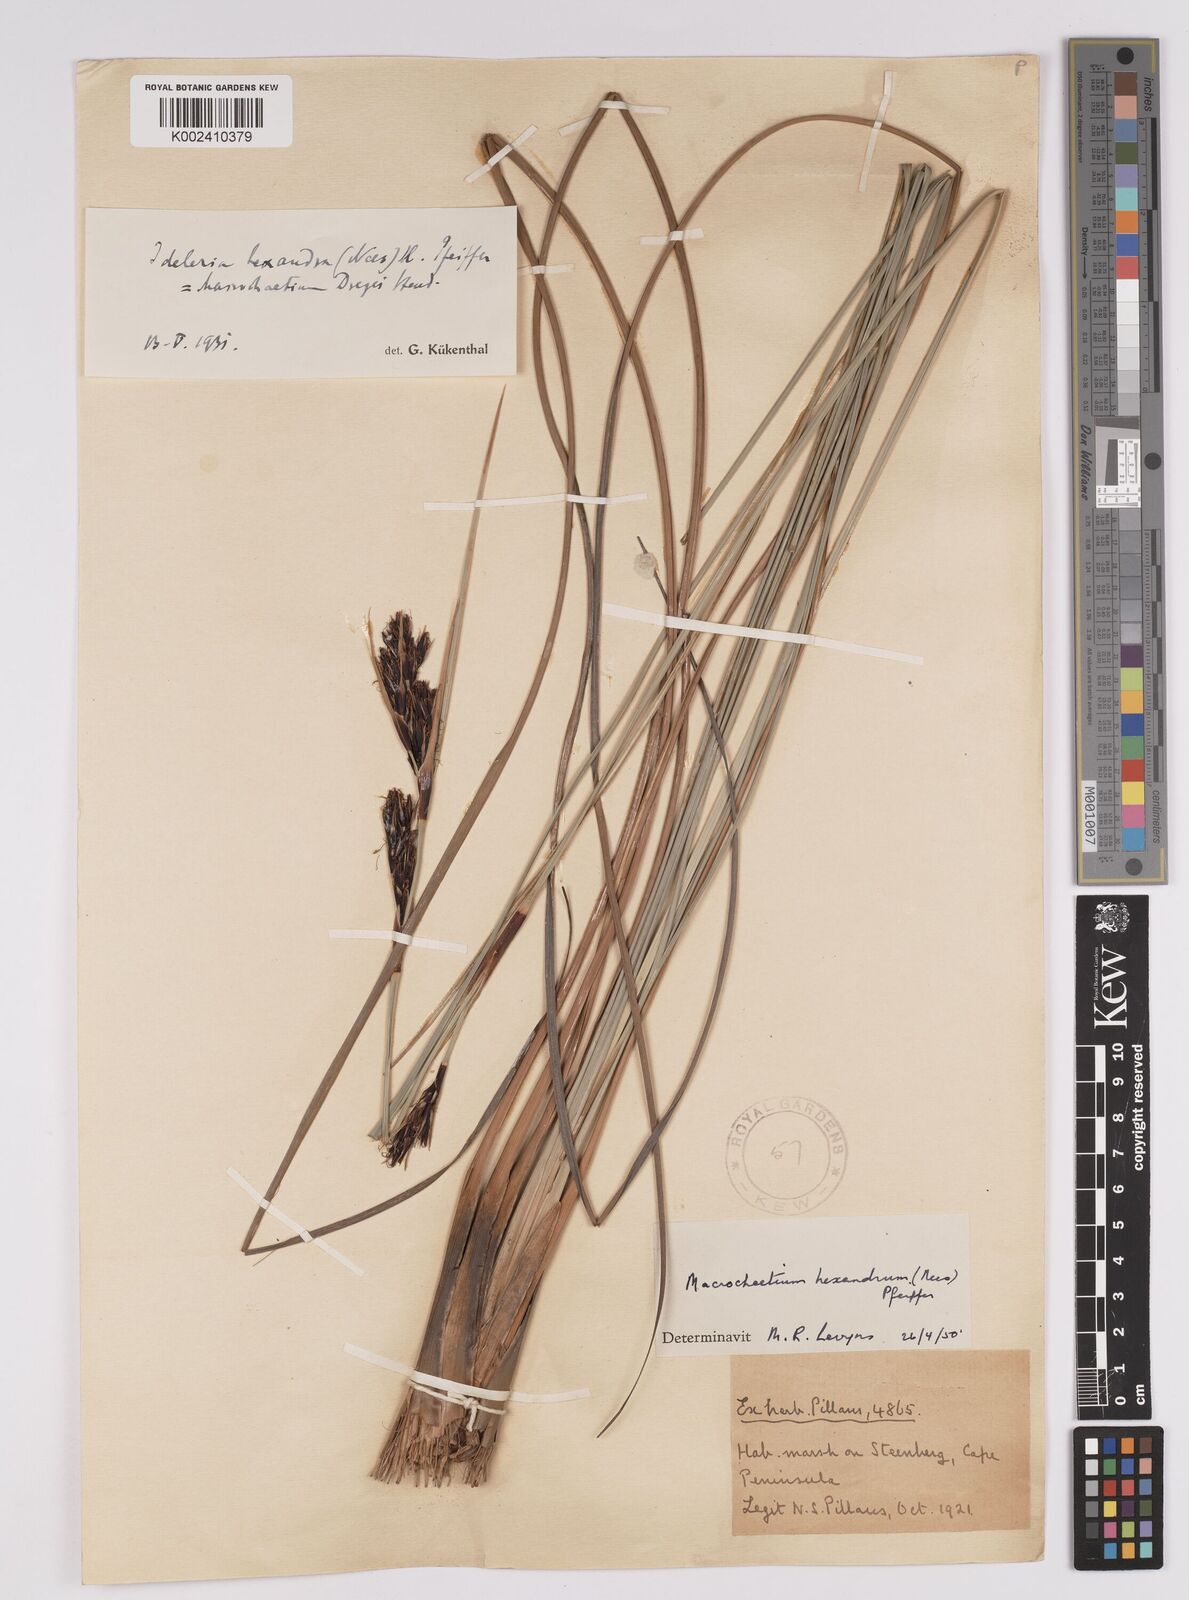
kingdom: Plantae
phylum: Tracheophyta
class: Liliopsida
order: Poales
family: Cyperaceae
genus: Cyathocoma
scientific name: Cyathocoma hexandra
